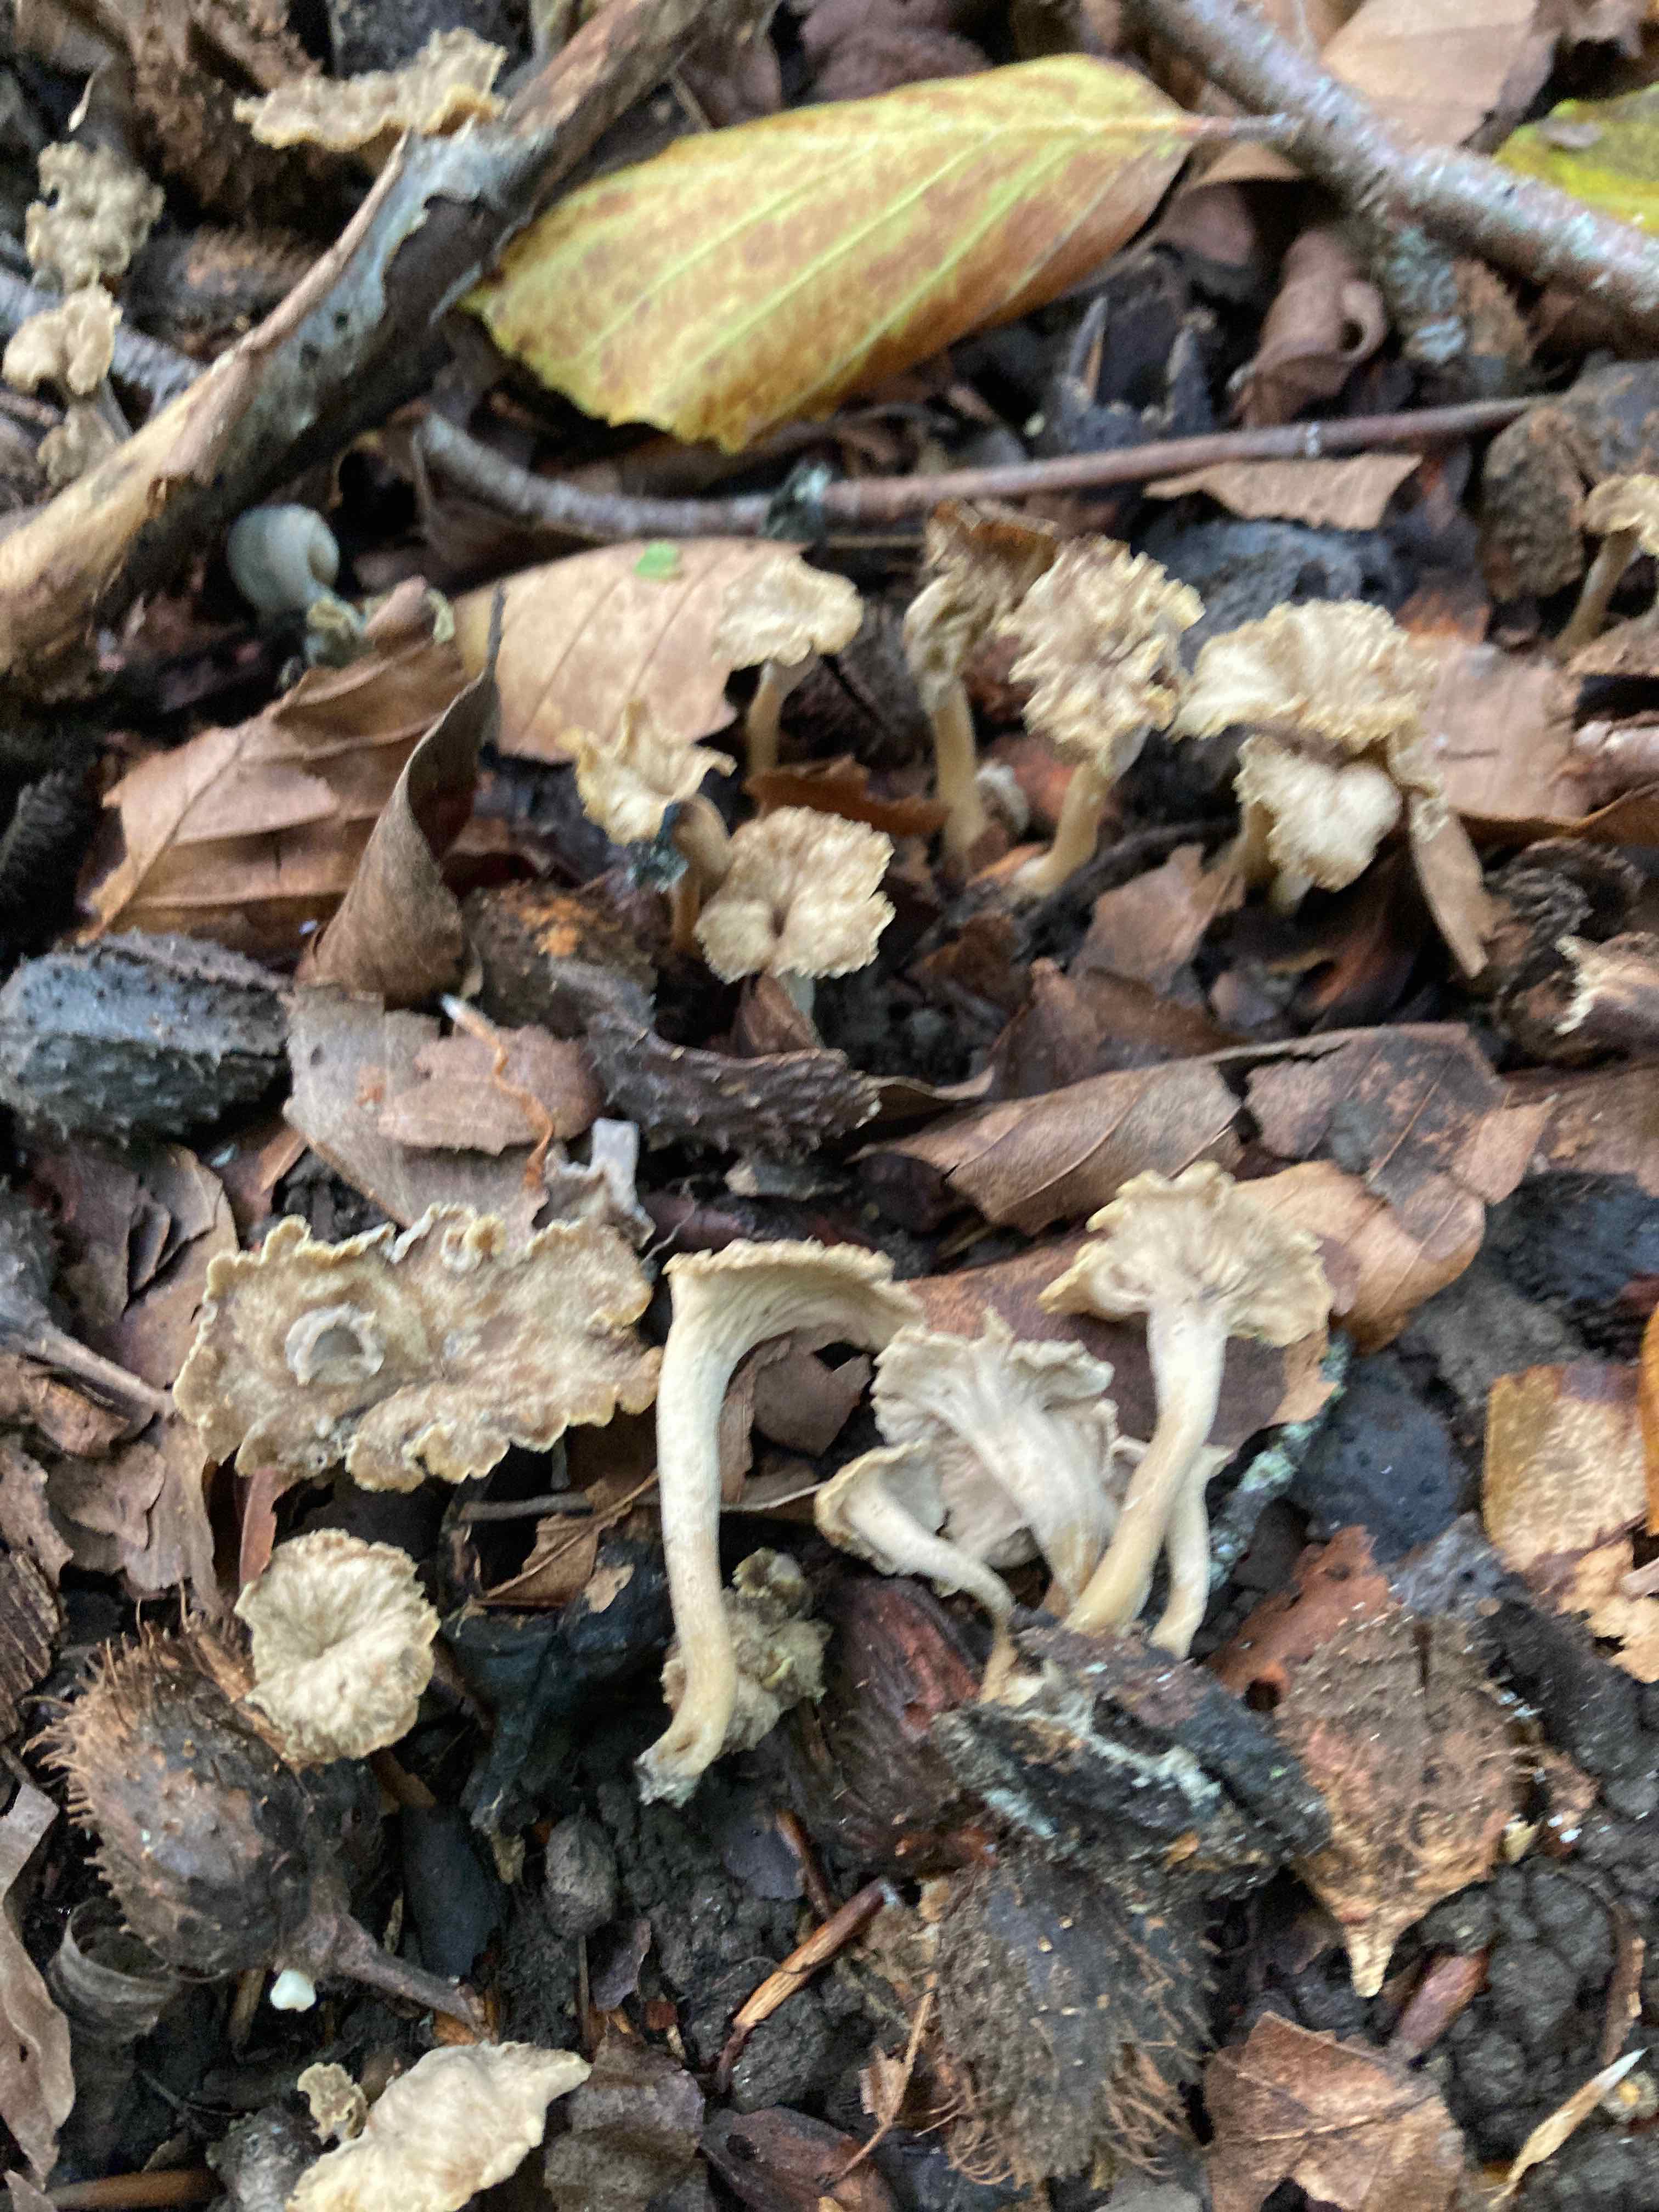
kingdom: Fungi
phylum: Basidiomycota
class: Agaricomycetes
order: Cantharellales
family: Hydnaceae
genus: Craterellus
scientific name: Craterellus undulatus
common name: liden kantarel
